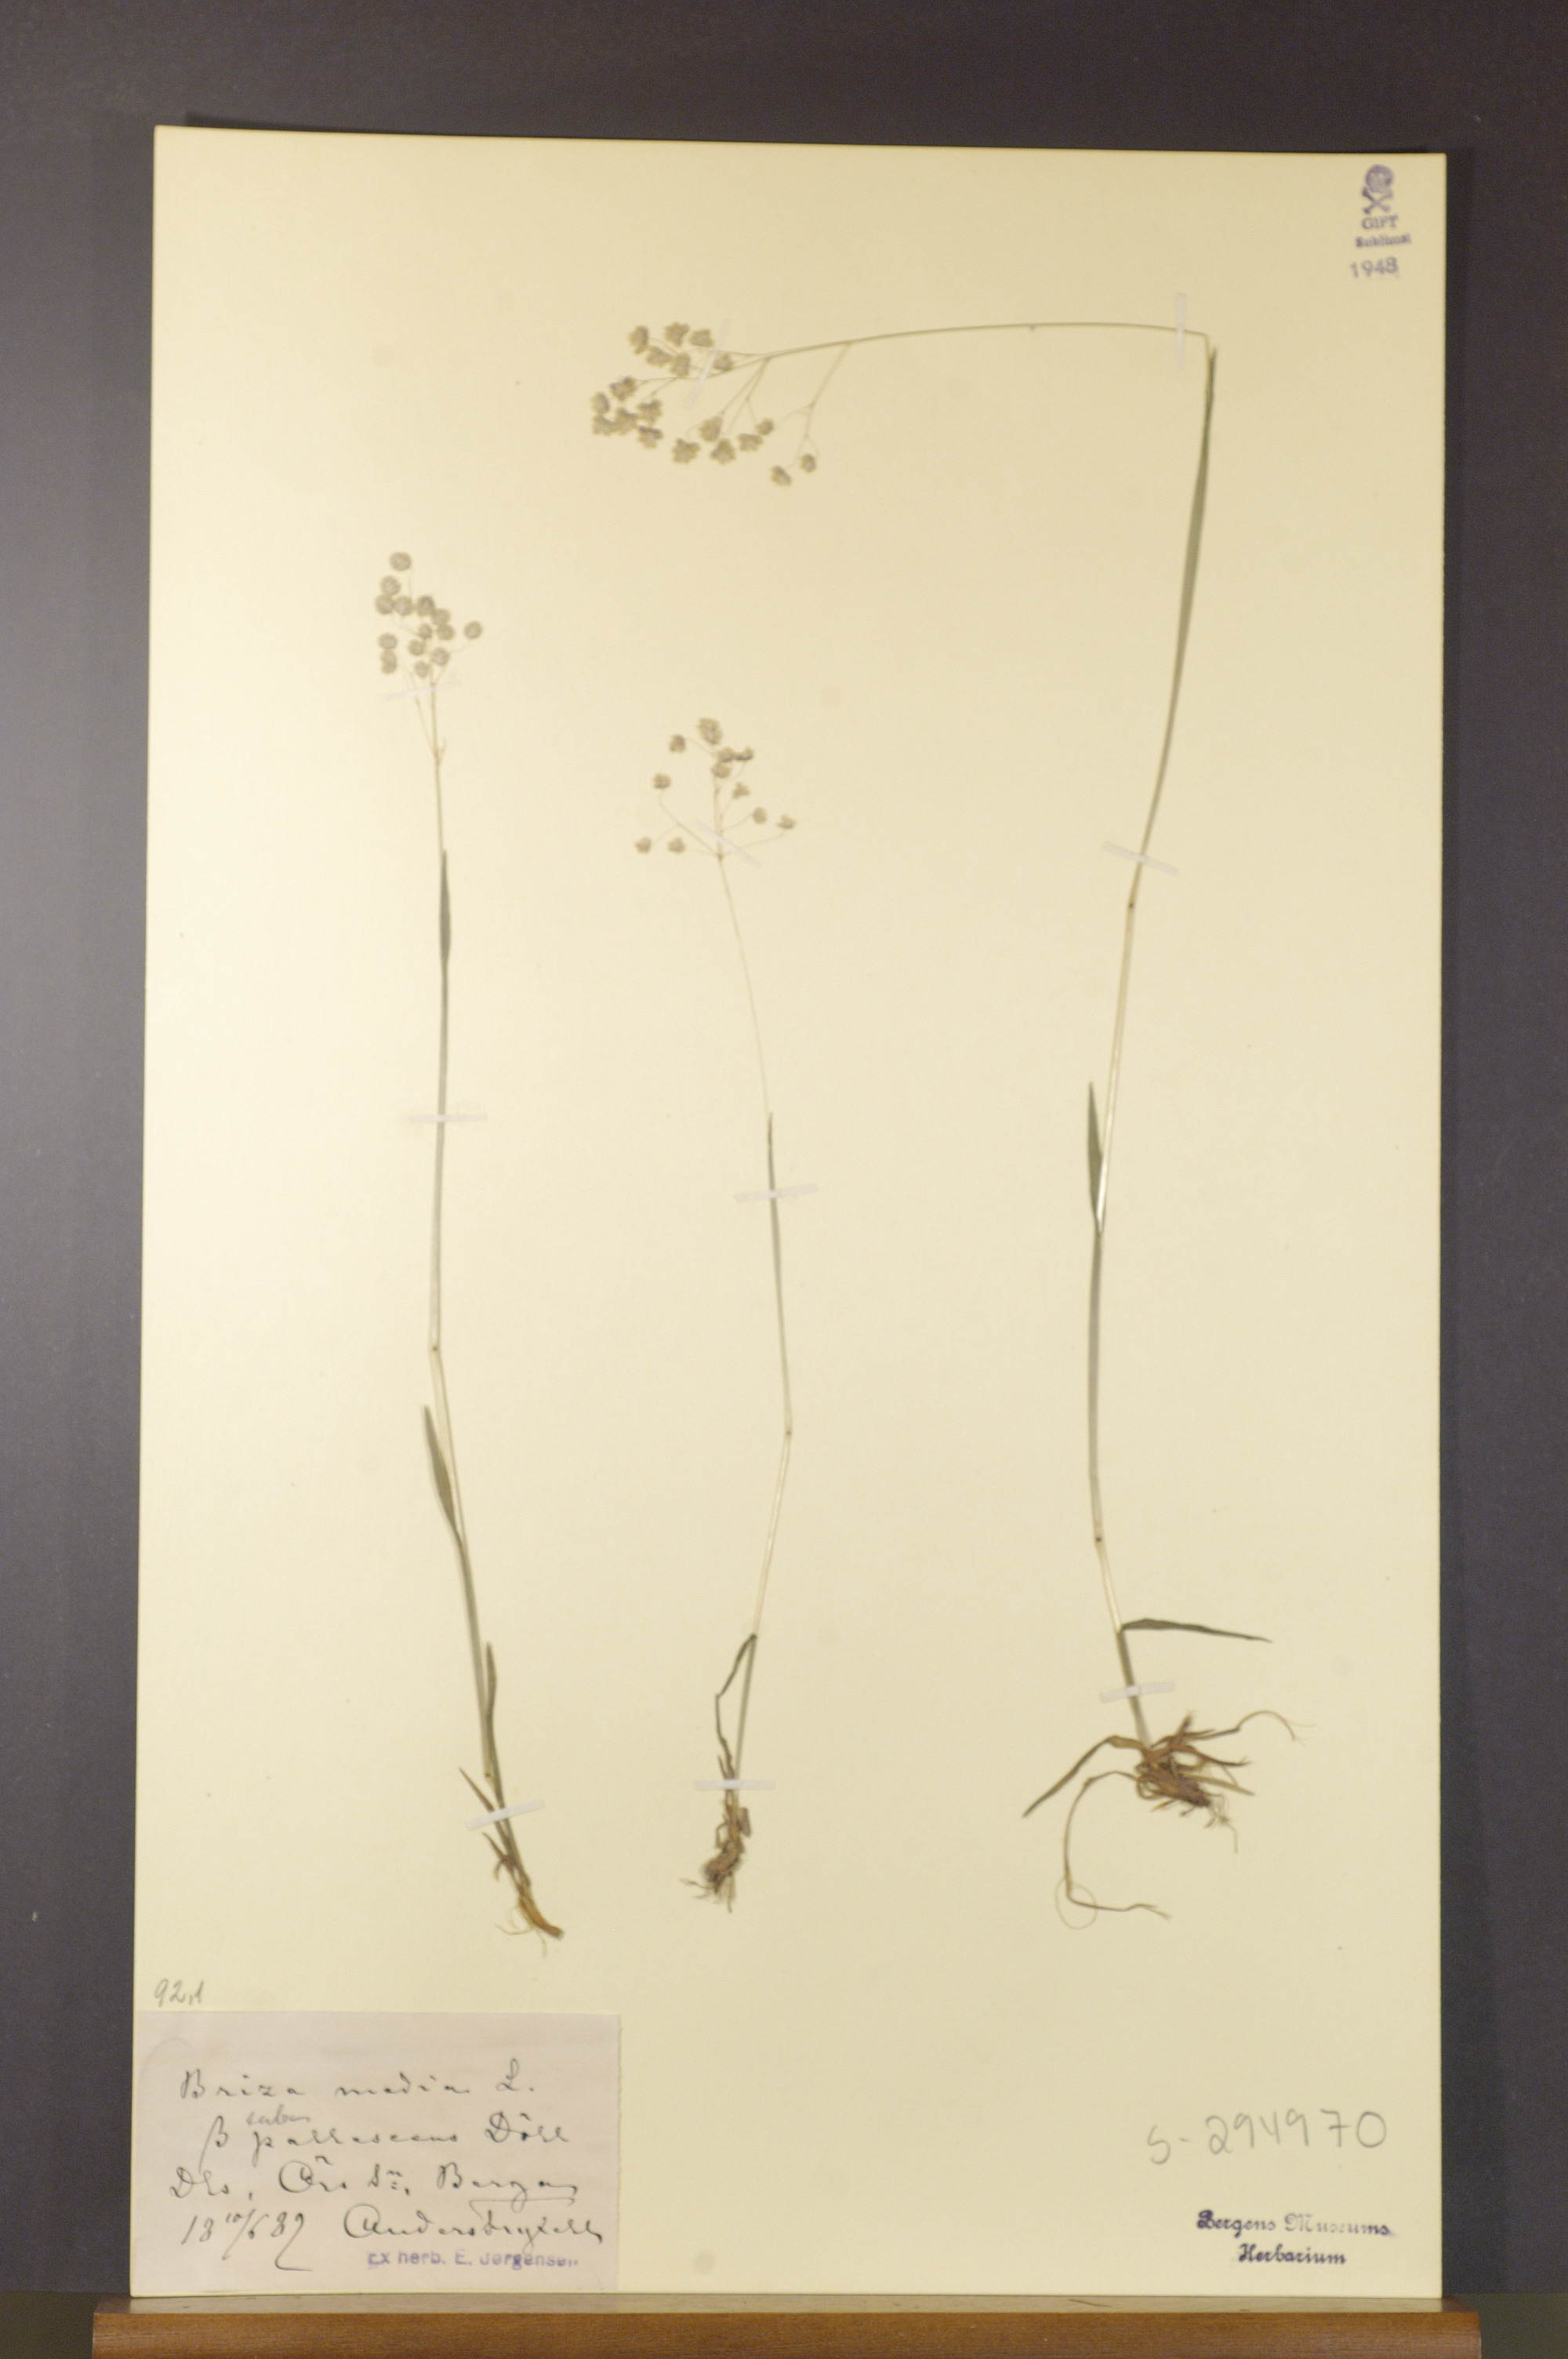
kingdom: Plantae
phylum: Tracheophyta
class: Liliopsida
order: Poales
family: Poaceae
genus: Briza
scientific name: Briza media
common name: Quaking grass
